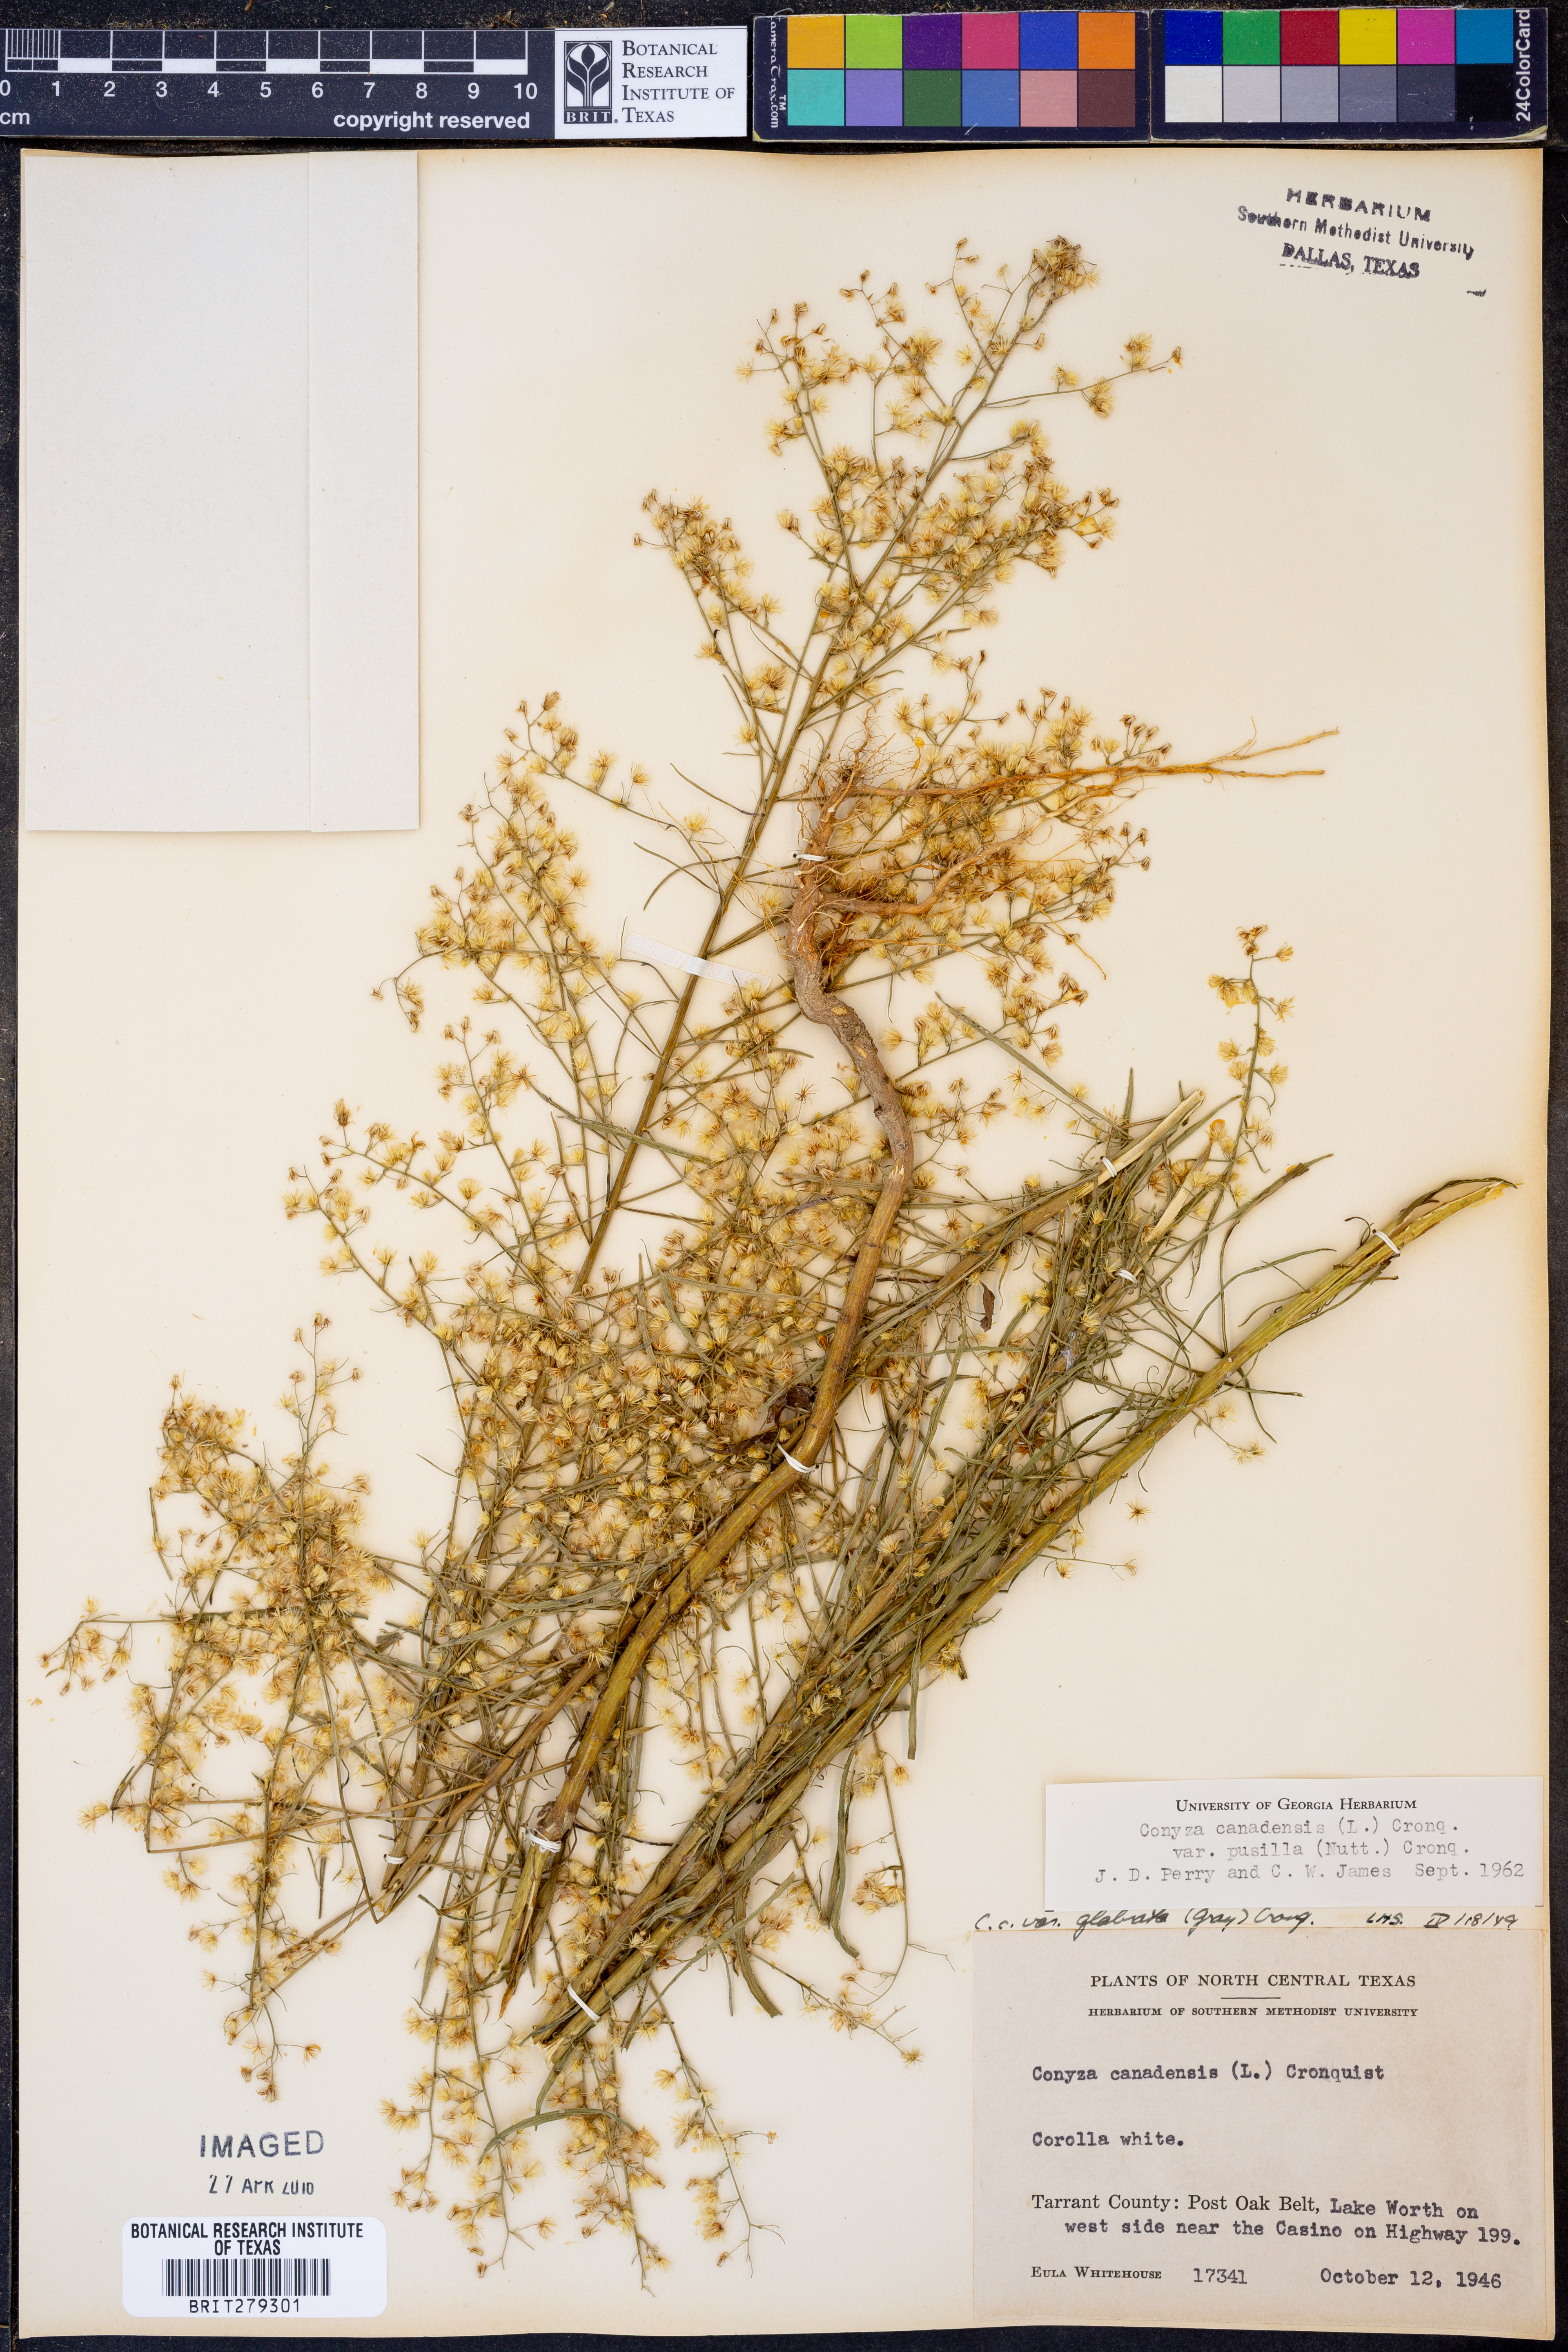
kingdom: Plantae
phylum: Tracheophyta
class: Magnoliopsida
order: Asterales
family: Asteraceae
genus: Erigeron
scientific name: Erigeron canadensis
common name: Canadian fleabane
